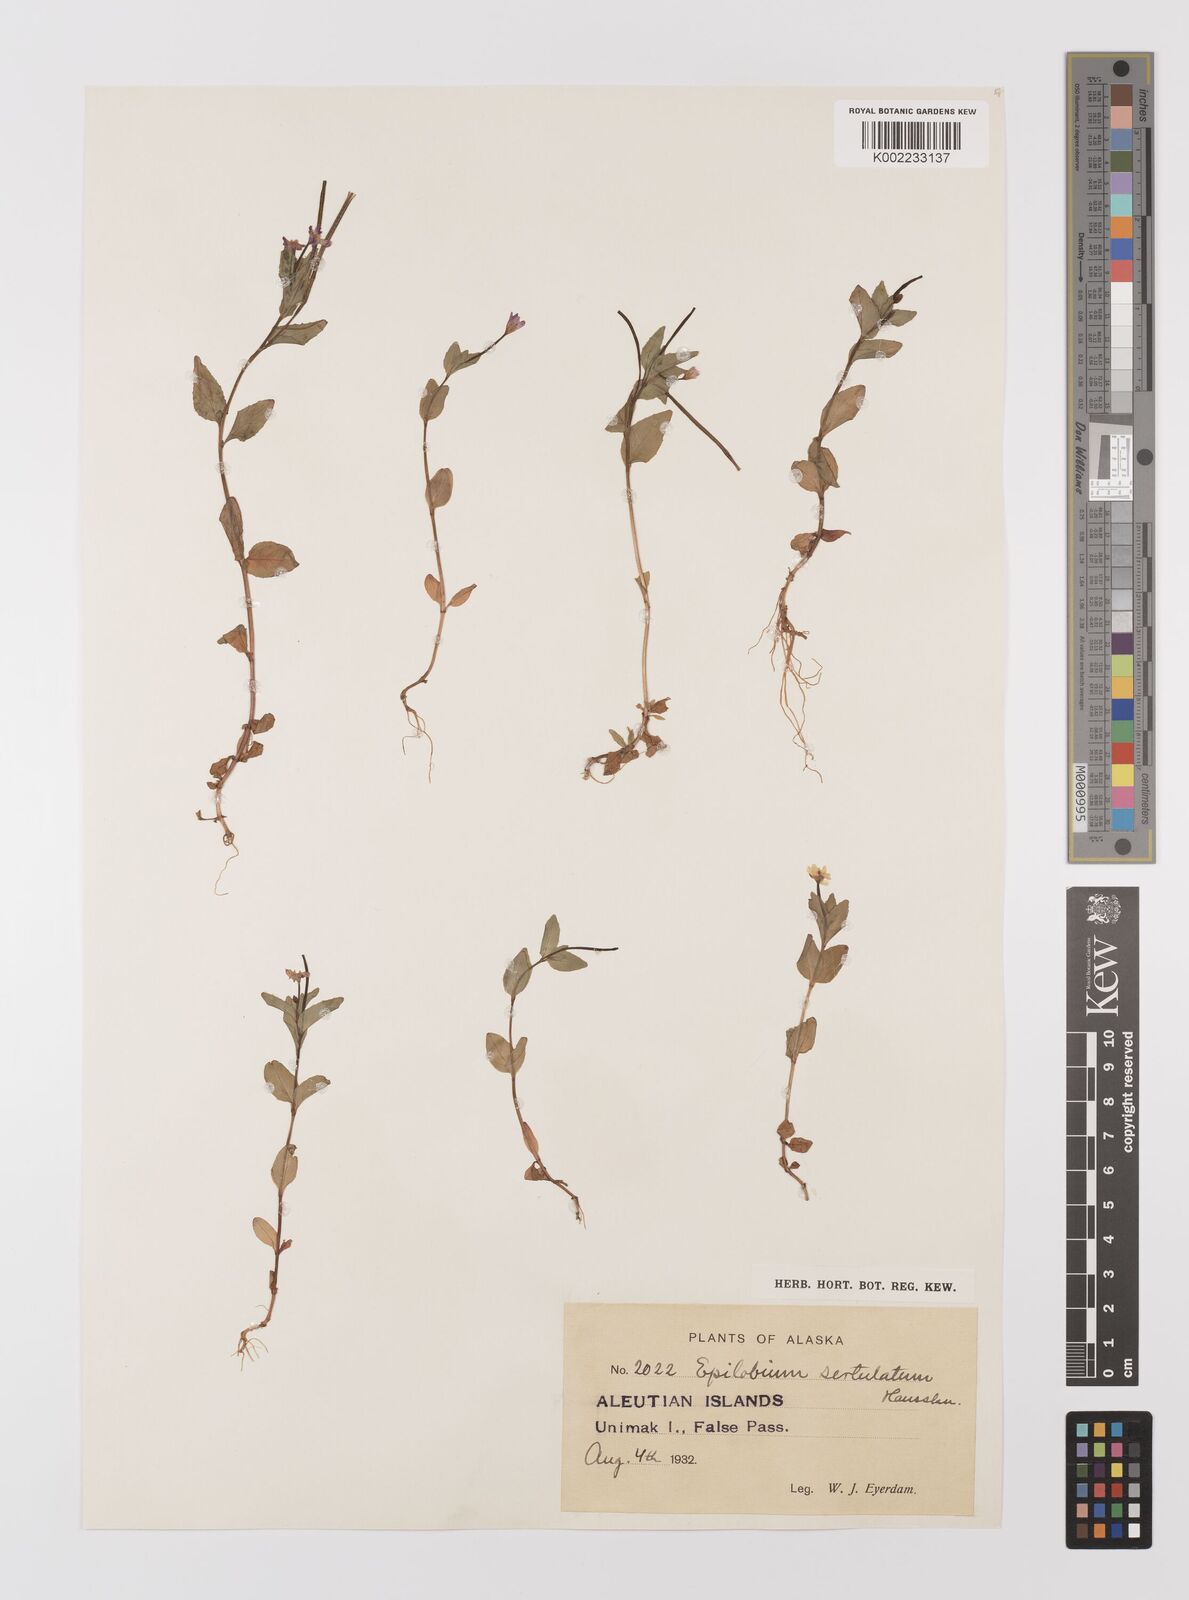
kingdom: Plantae
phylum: Tracheophyta
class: Magnoliopsida
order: Myrtales
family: Onagraceae
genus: Epilobium
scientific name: Epilobium hornemannii
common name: Hornemann's willowherb
